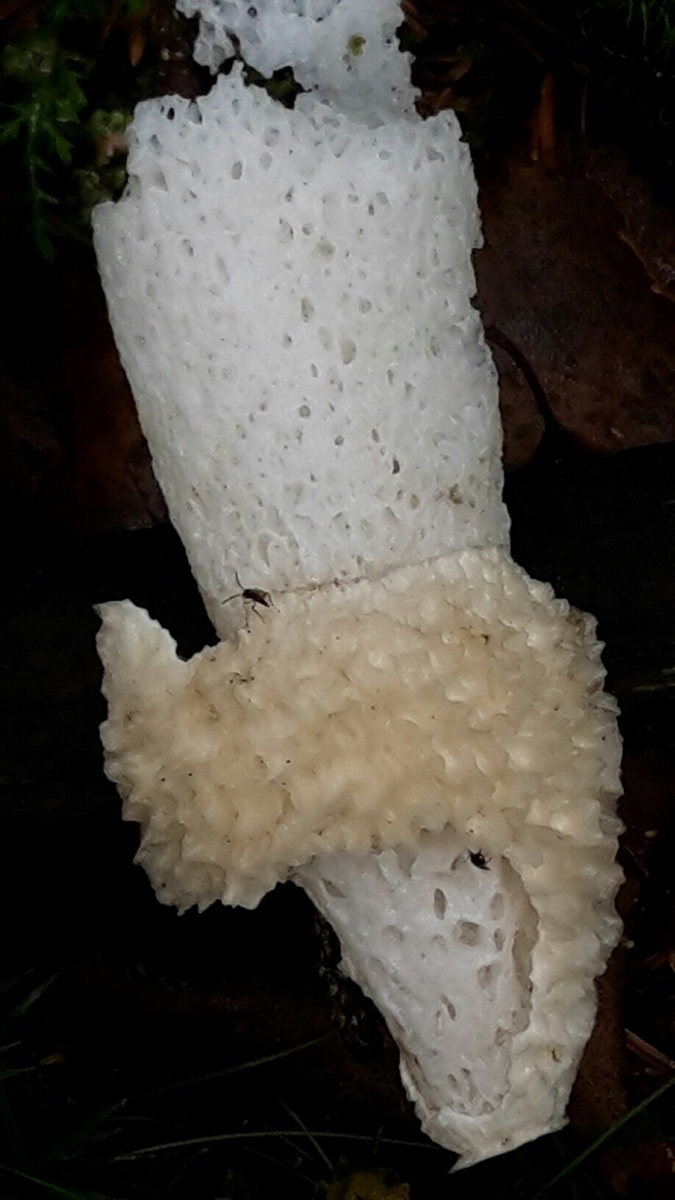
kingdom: Fungi
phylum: Basidiomycota
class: Agaricomycetes
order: Phallales
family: Phallaceae
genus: Phallus
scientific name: Phallus impudicus
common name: almindelig stinksvamp
